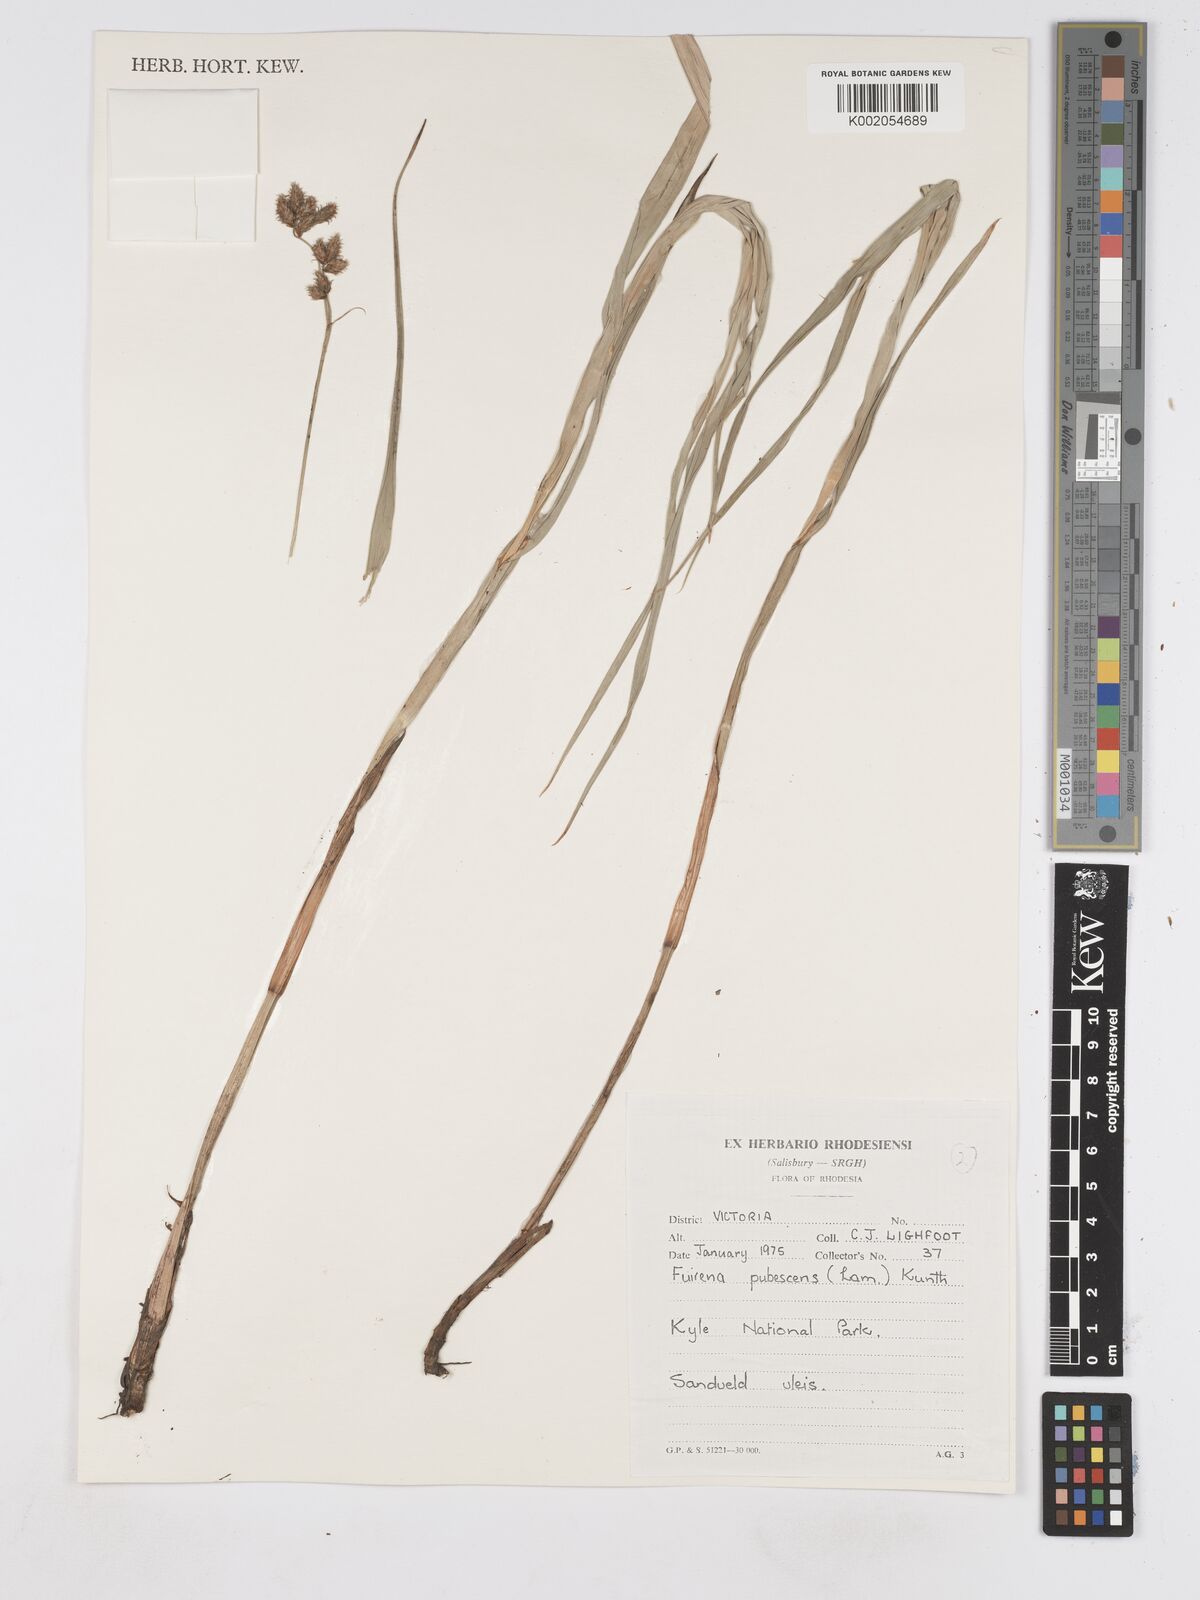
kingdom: Plantae
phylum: Tracheophyta
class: Liliopsida
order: Poales
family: Cyperaceae
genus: Fuirena
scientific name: Fuirena pachyrrhiza
